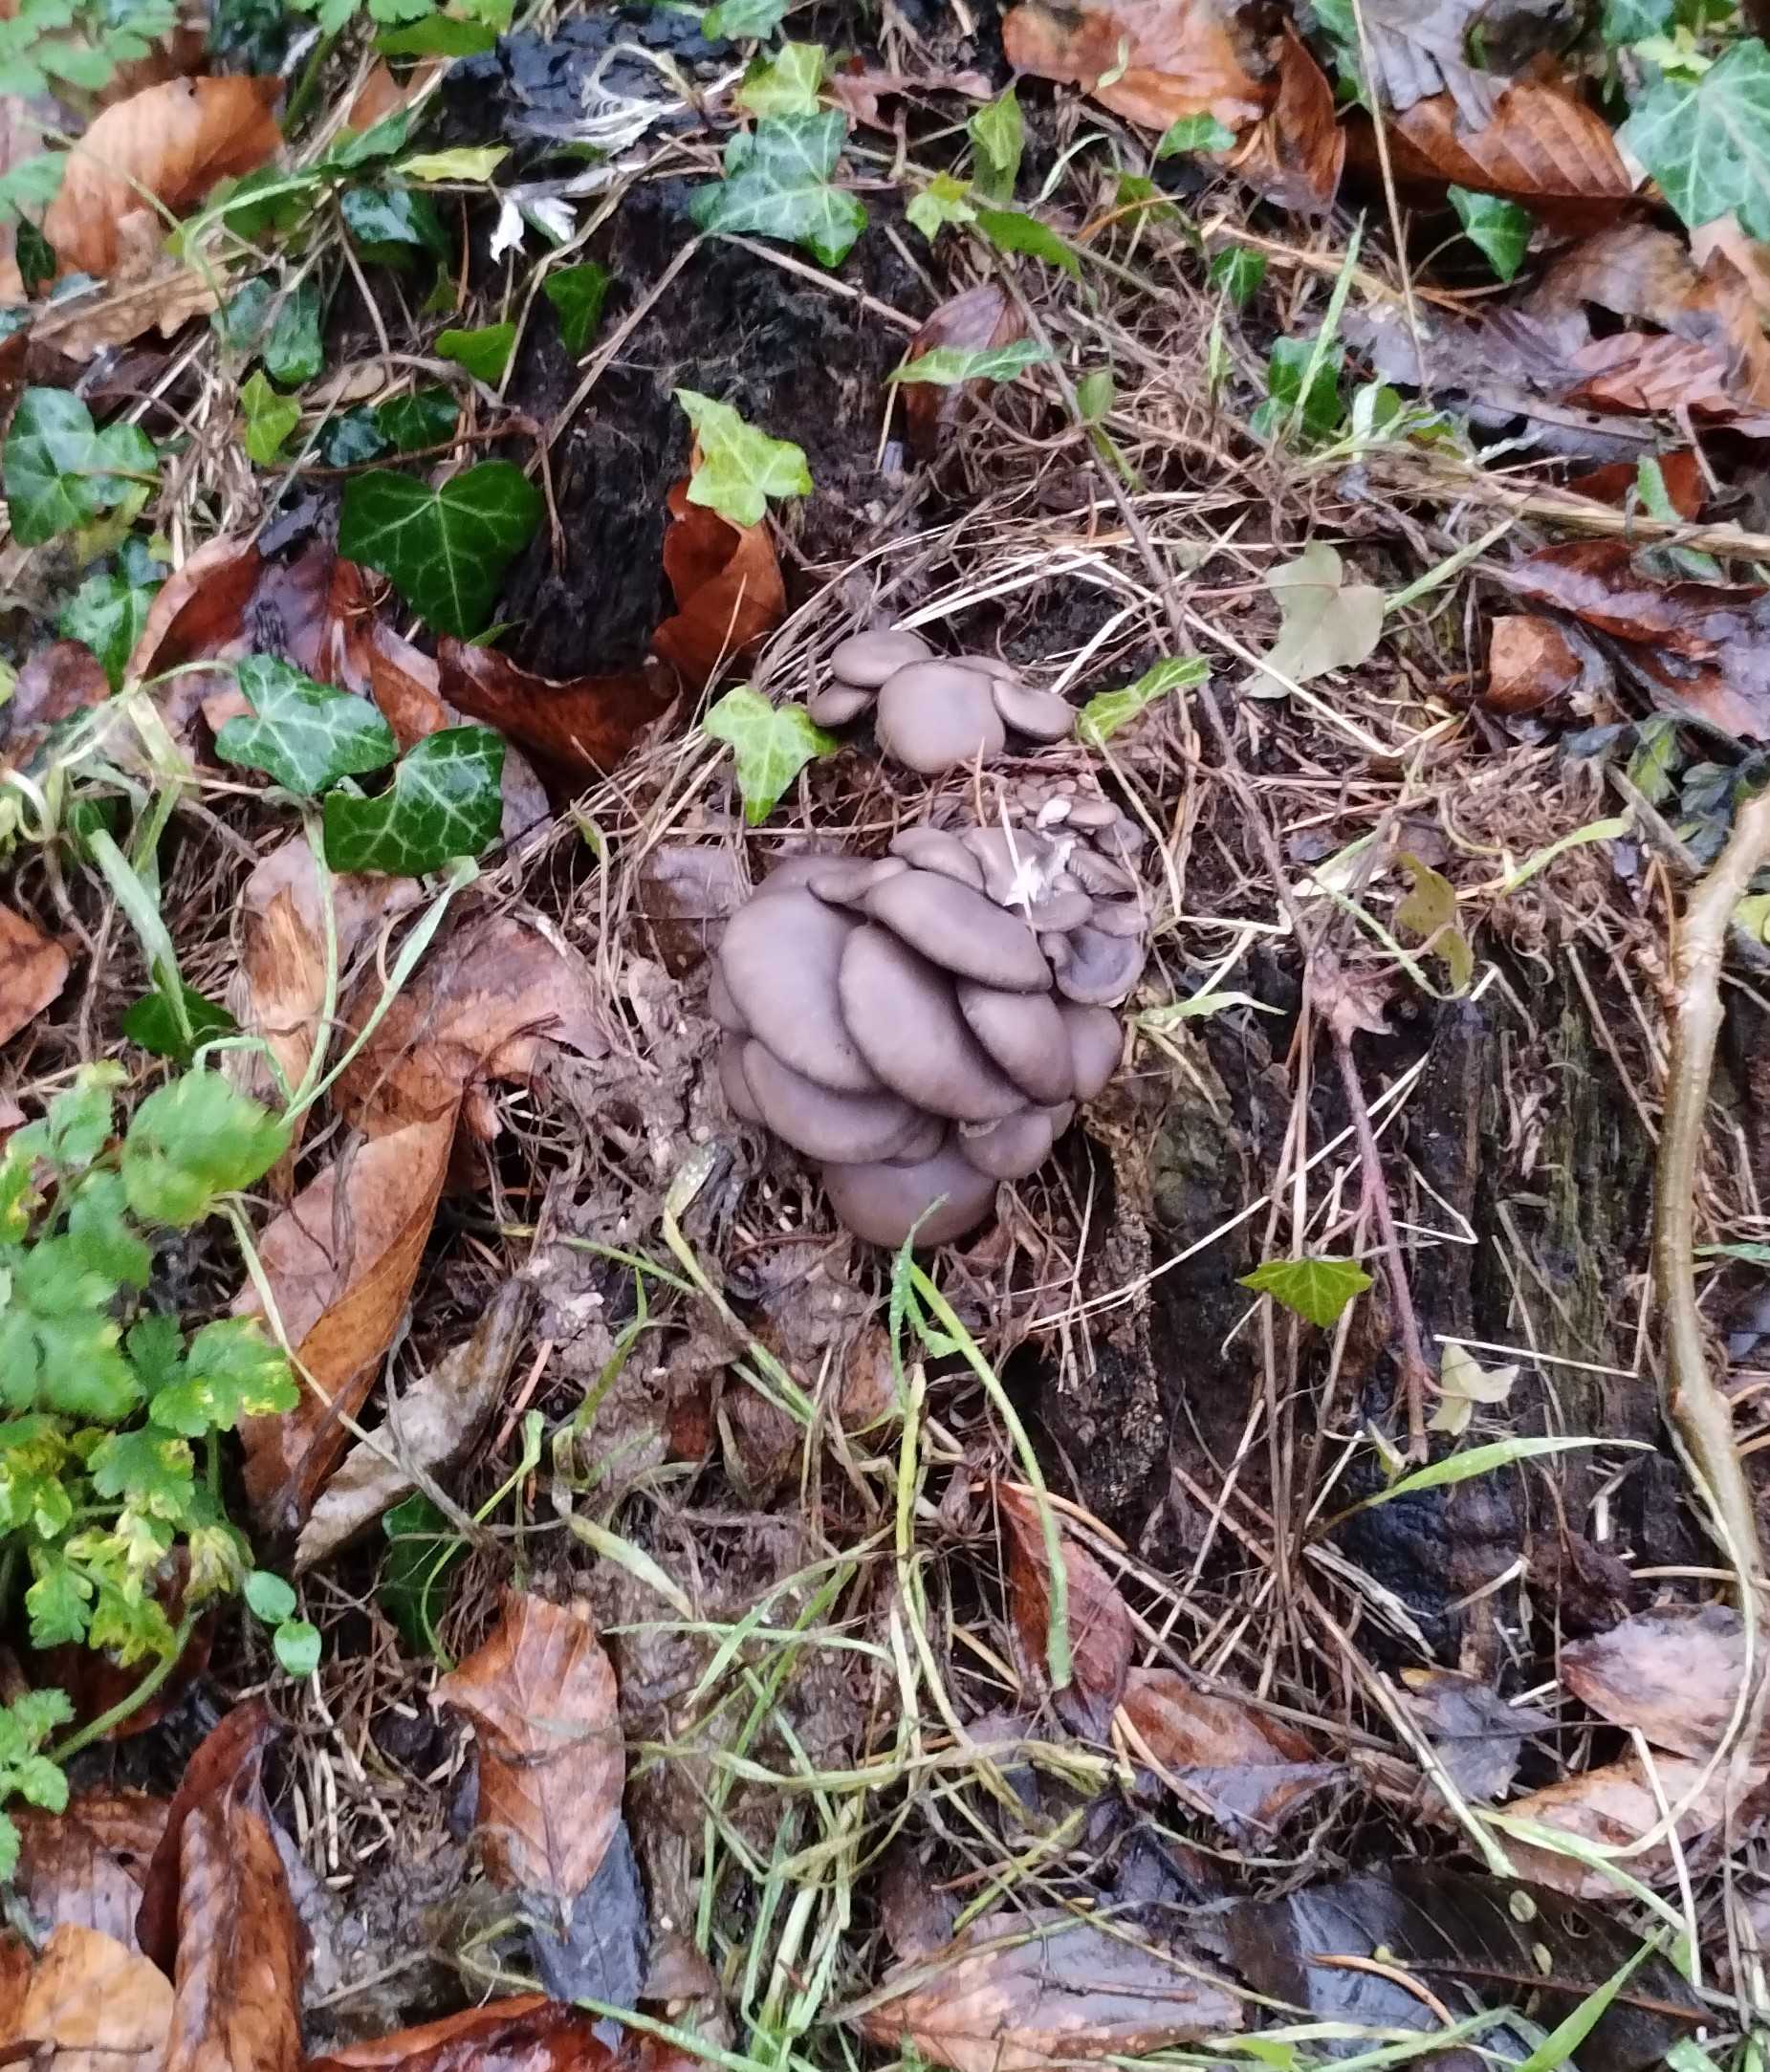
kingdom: Fungi
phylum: Basidiomycota
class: Agaricomycetes
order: Agaricales
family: Pleurotaceae
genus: Pleurotus
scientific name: Pleurotus ostreatus
